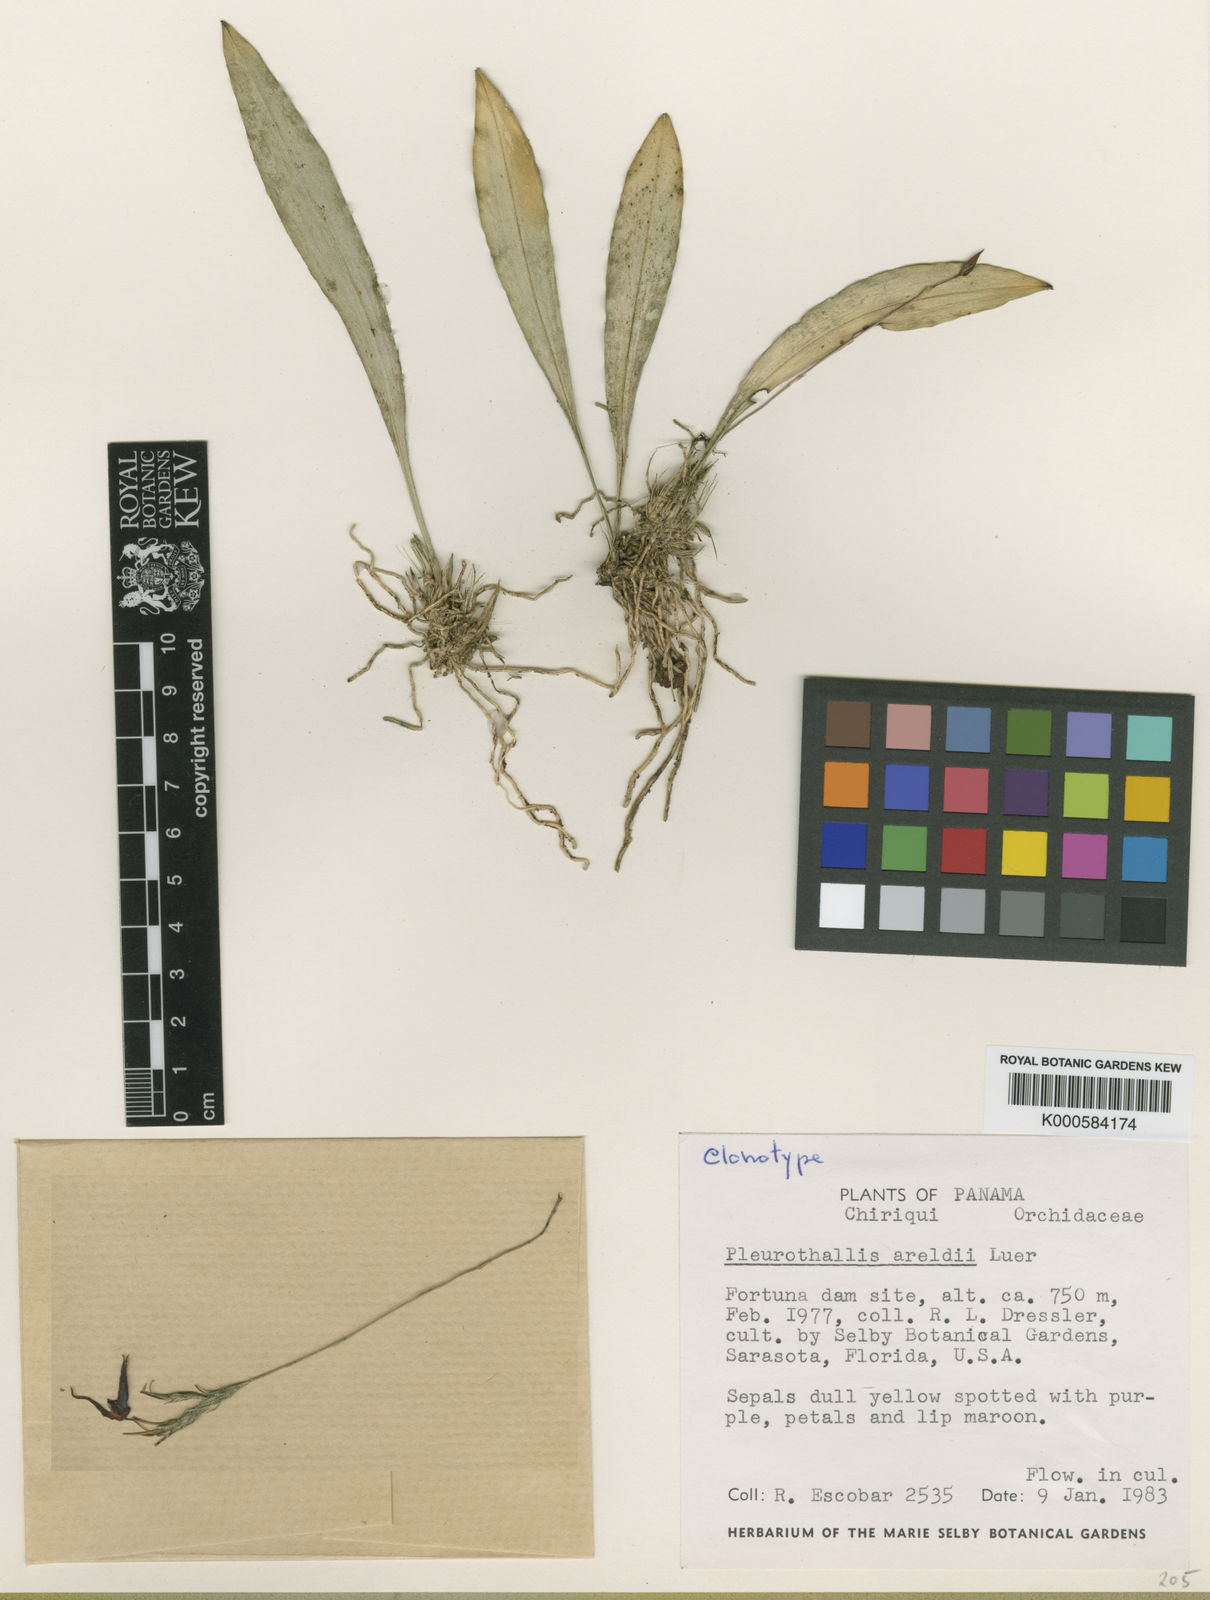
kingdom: Plantae
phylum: Tracheophyta
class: Liliopsida
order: Asparagales
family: Orchidaceae
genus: Specklinia
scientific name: Specklinia areldii
